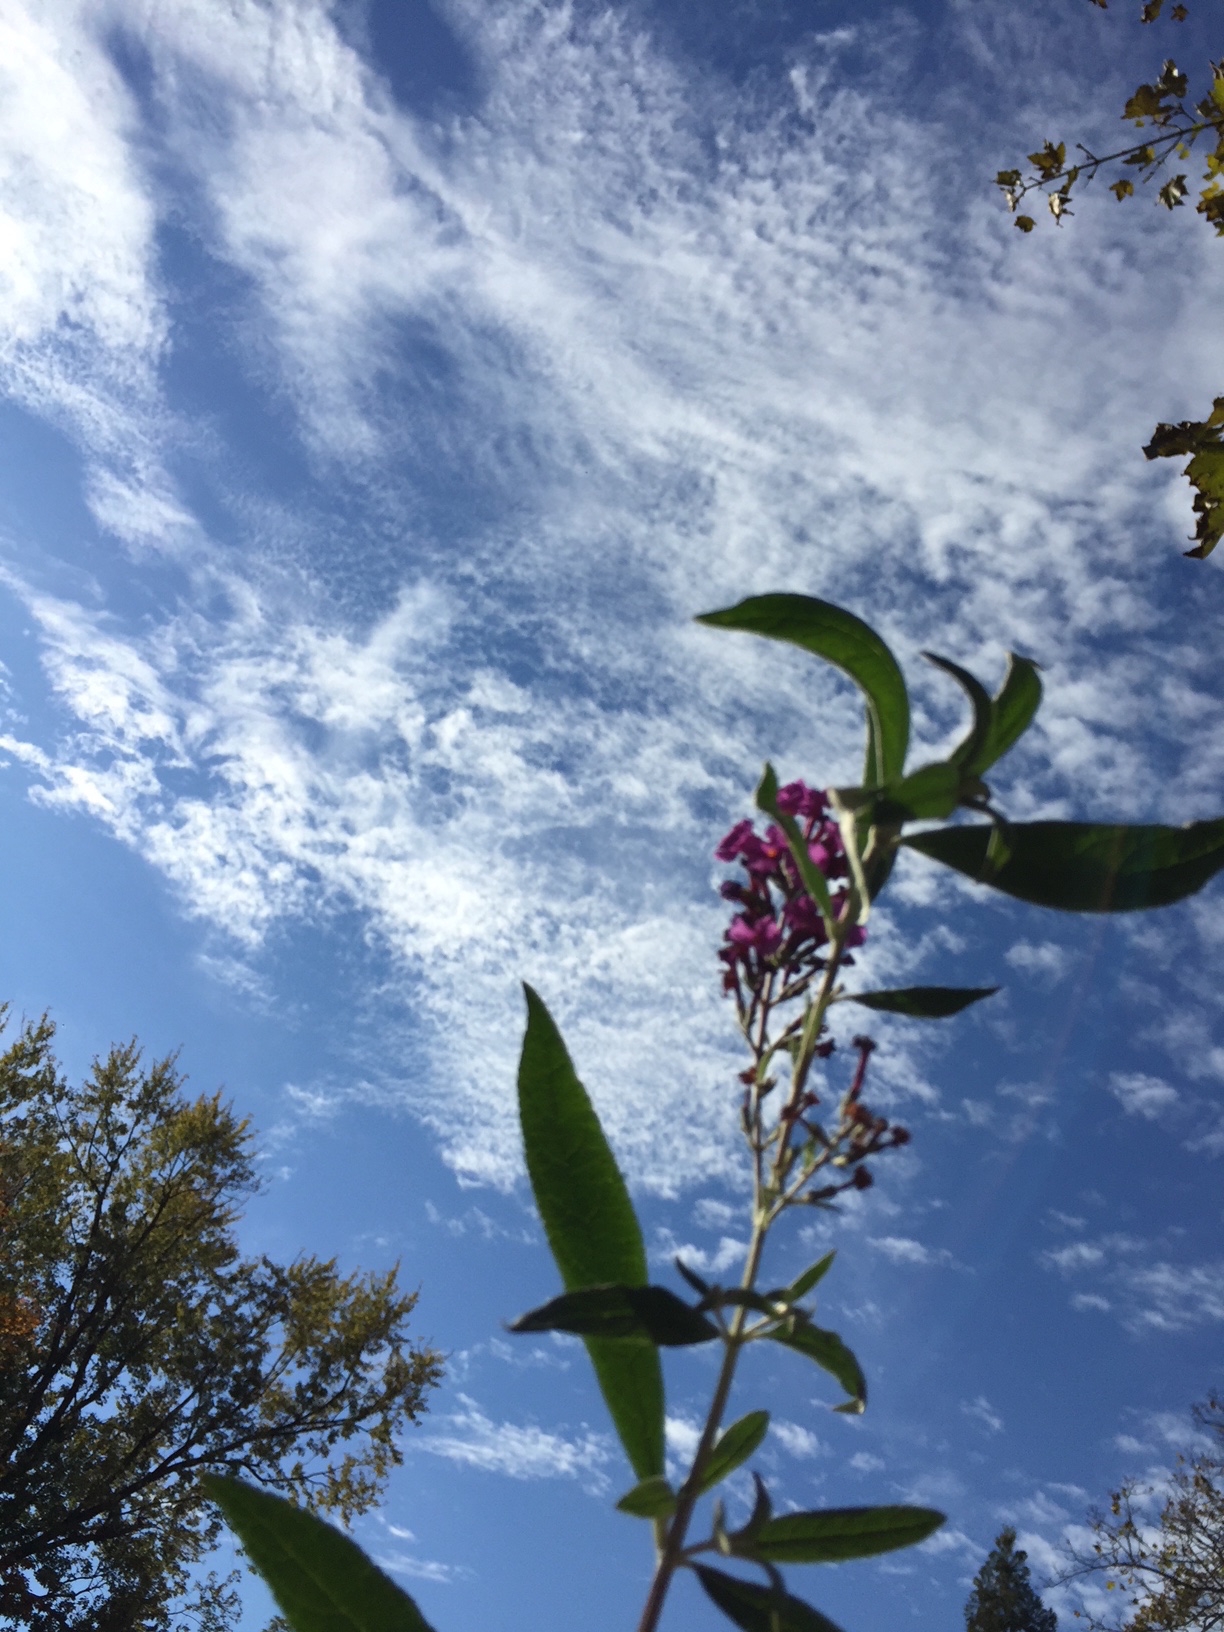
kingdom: Plantae
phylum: Tracheophyta
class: Magnoliopsida
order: Lamiales
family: Scrophulariaceae
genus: Buddleja
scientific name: Buddleja davidii
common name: Butterfly Bush
